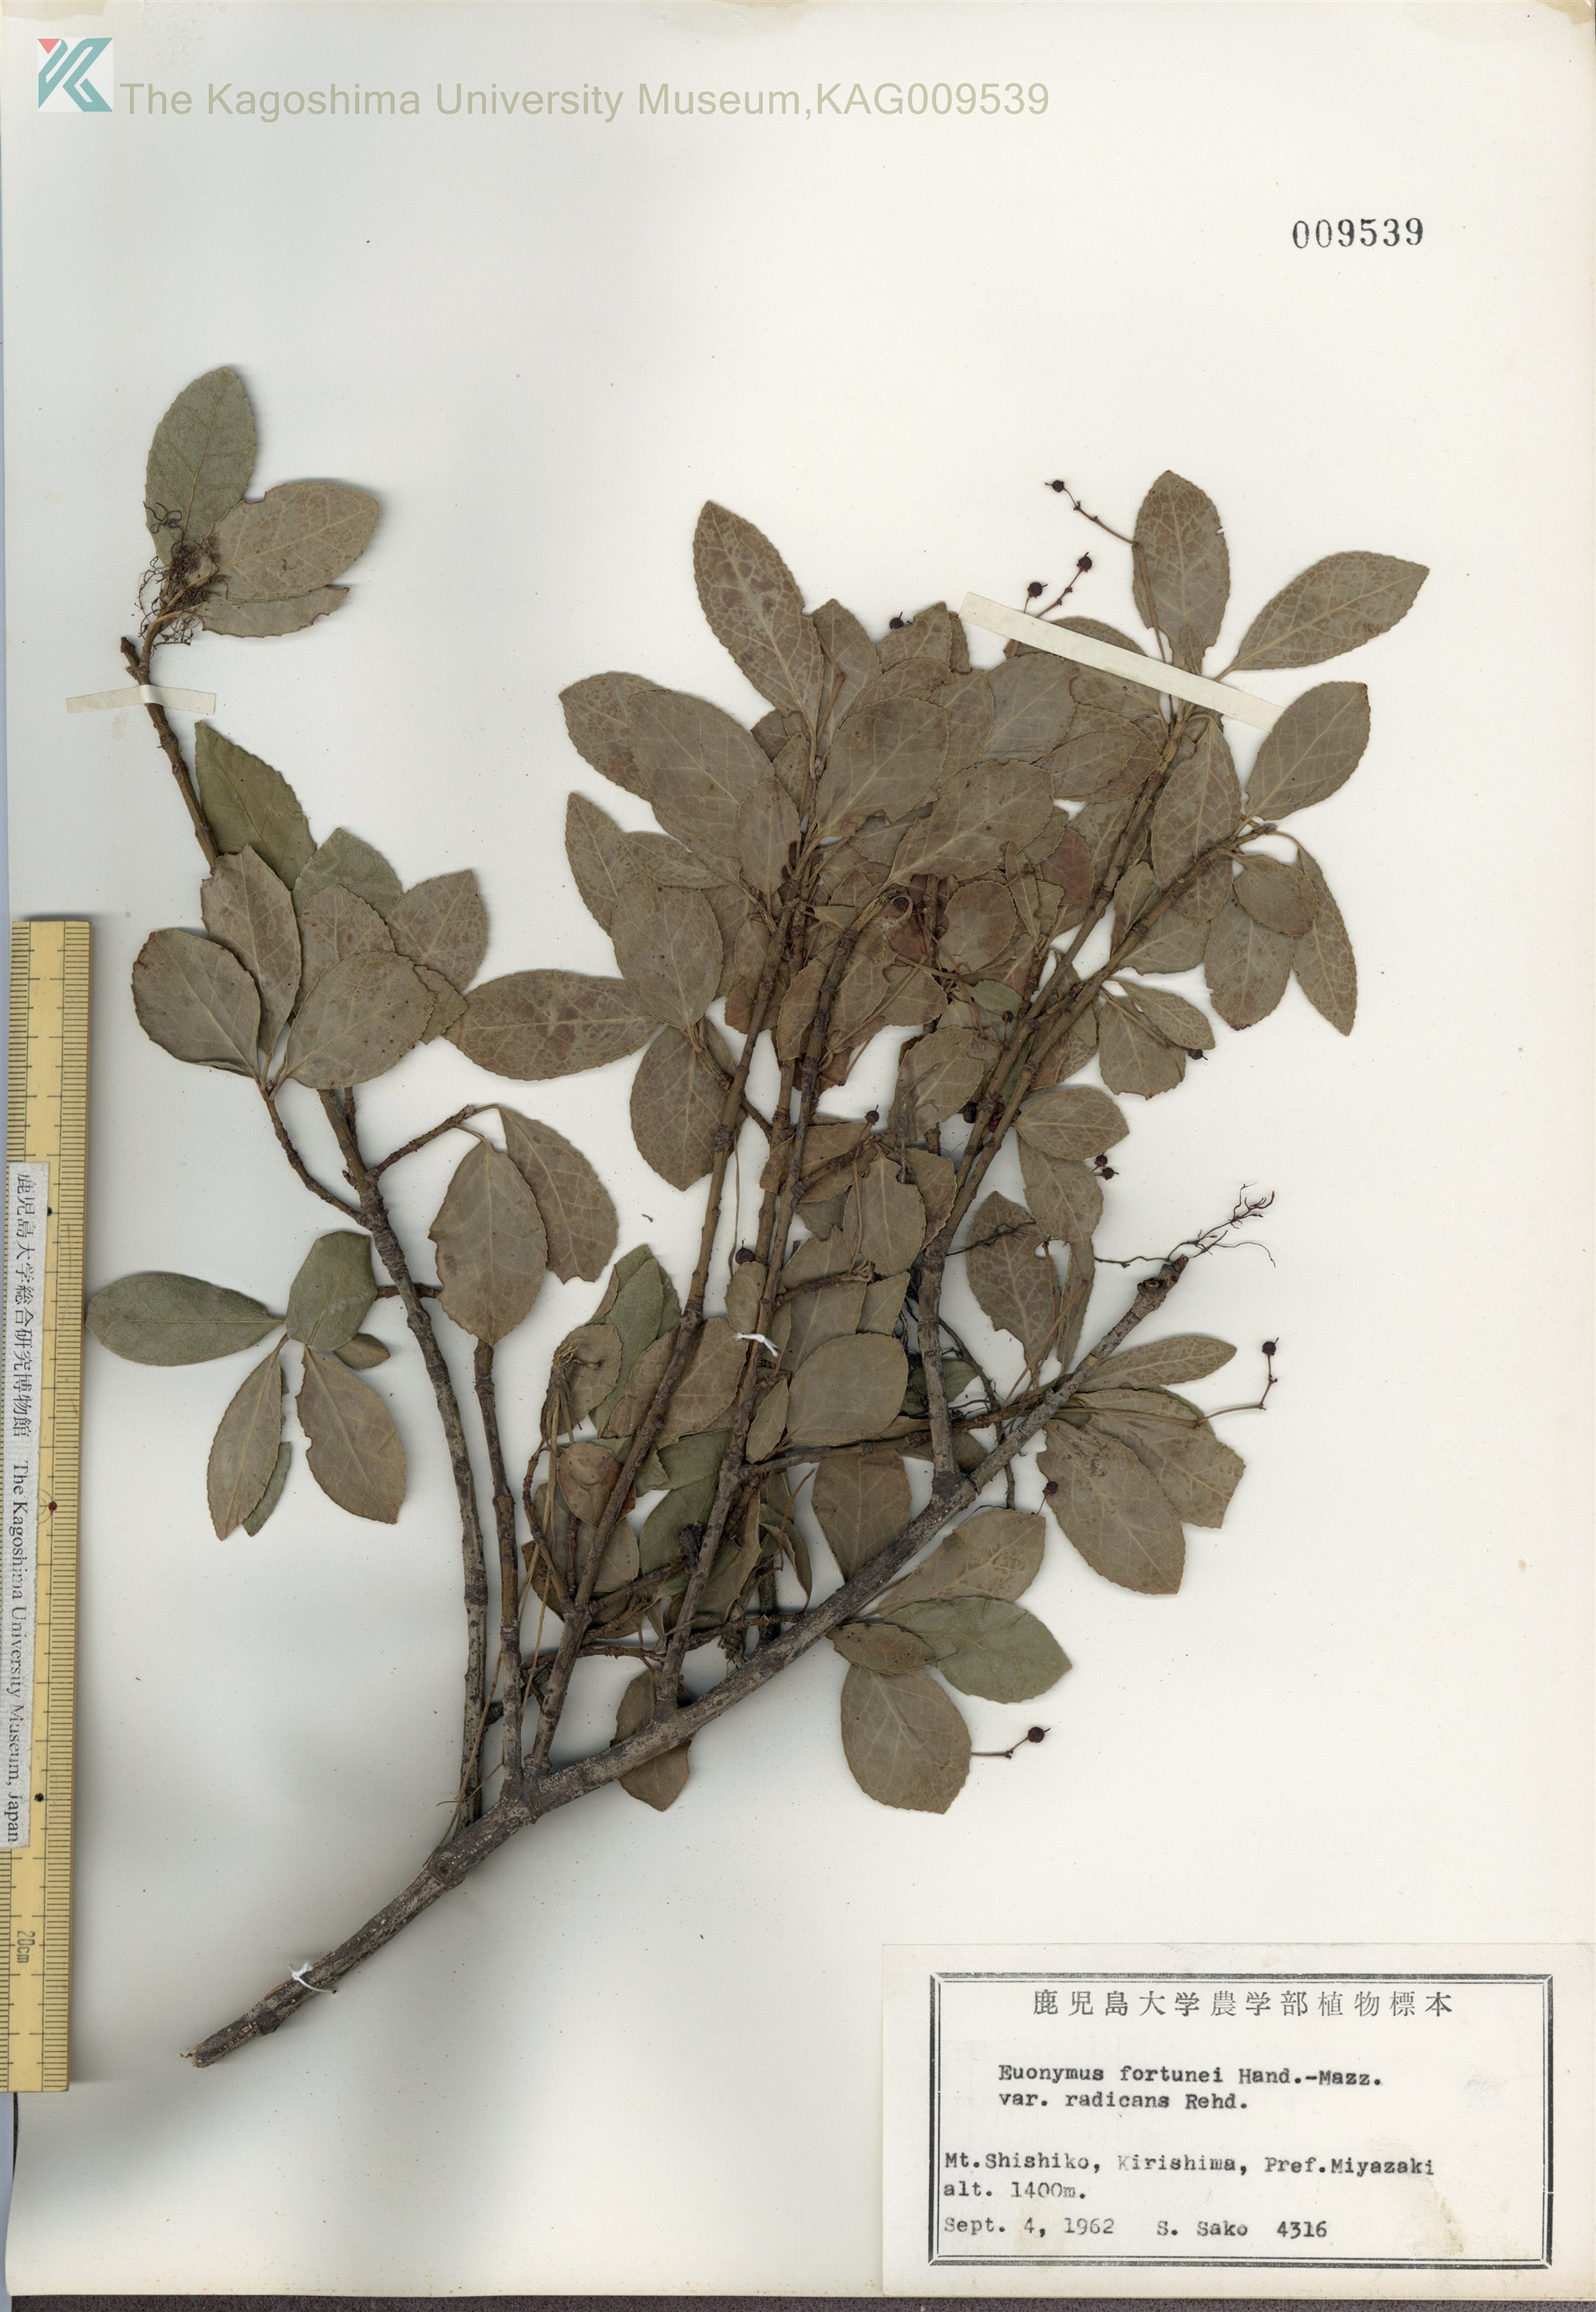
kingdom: Plantae
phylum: Tracheophyta
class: Magnoliopsida
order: Celastrales
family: Celastraceae
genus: Euonymus
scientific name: Euonymus fortunei
